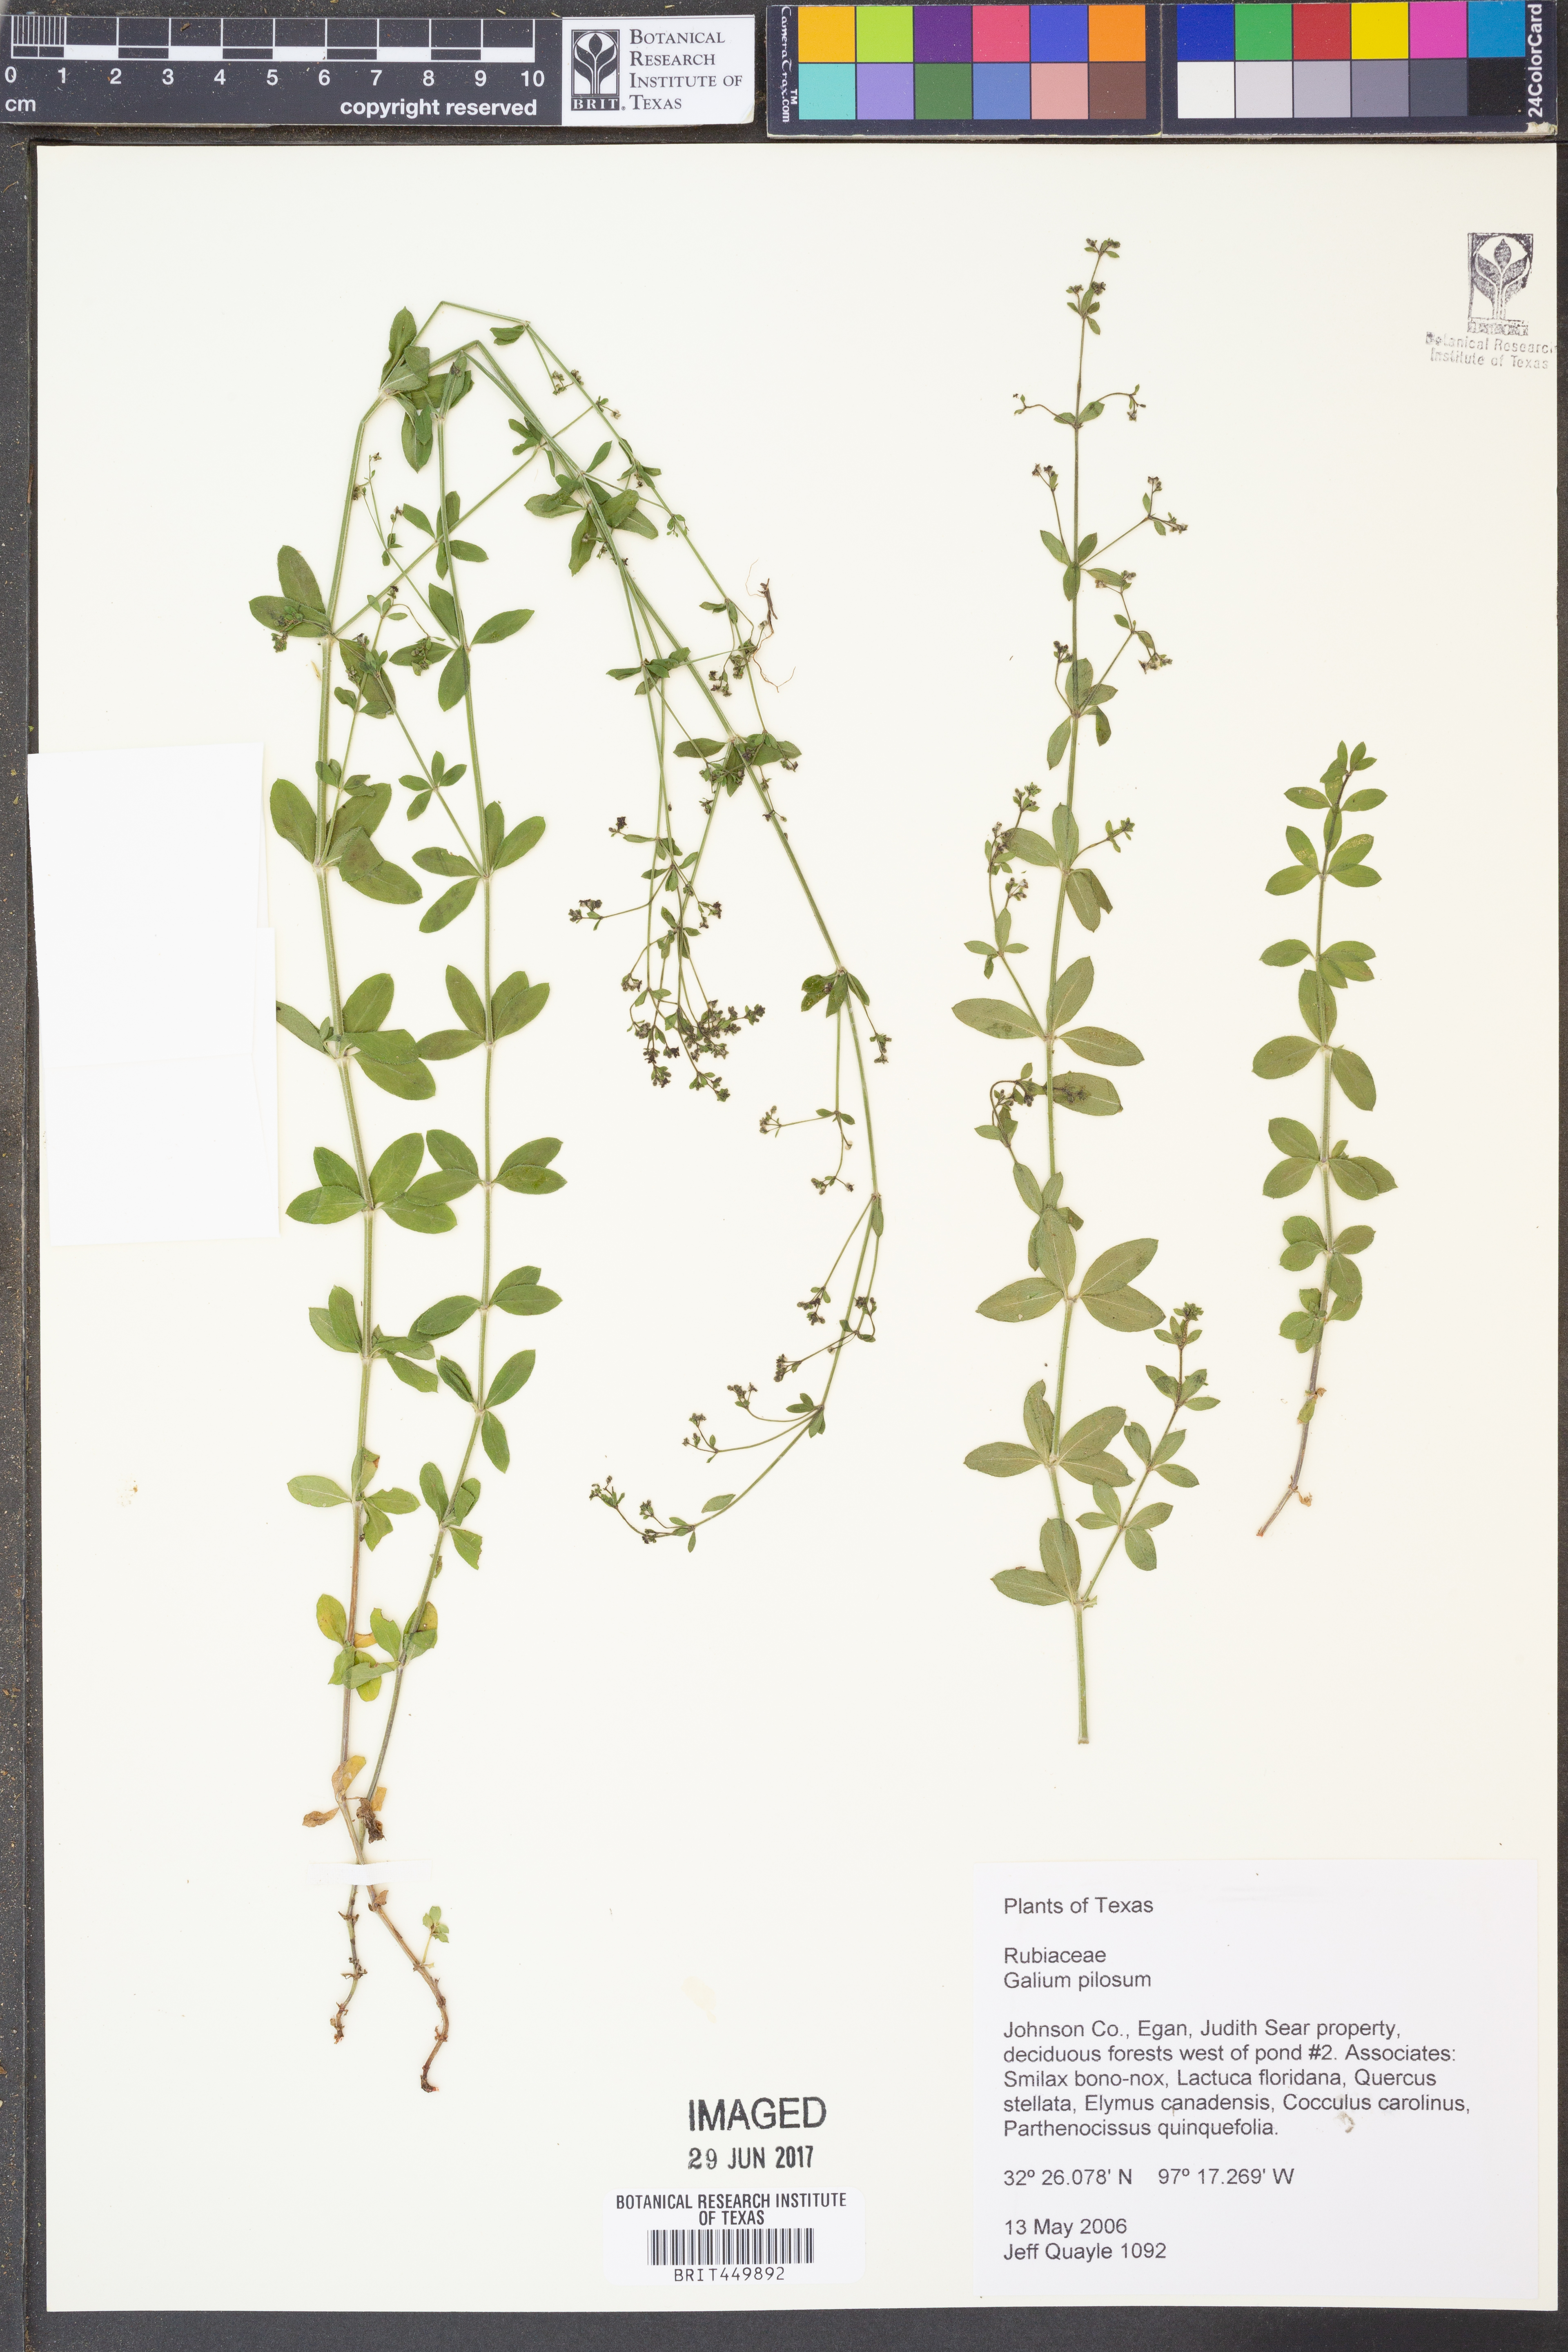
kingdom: Plantae
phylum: Tracheophyta
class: Magnoliopsida
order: Gentianales
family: Rubiaceae
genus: Galium
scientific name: Galium pilosum
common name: Hairy bedstraw
